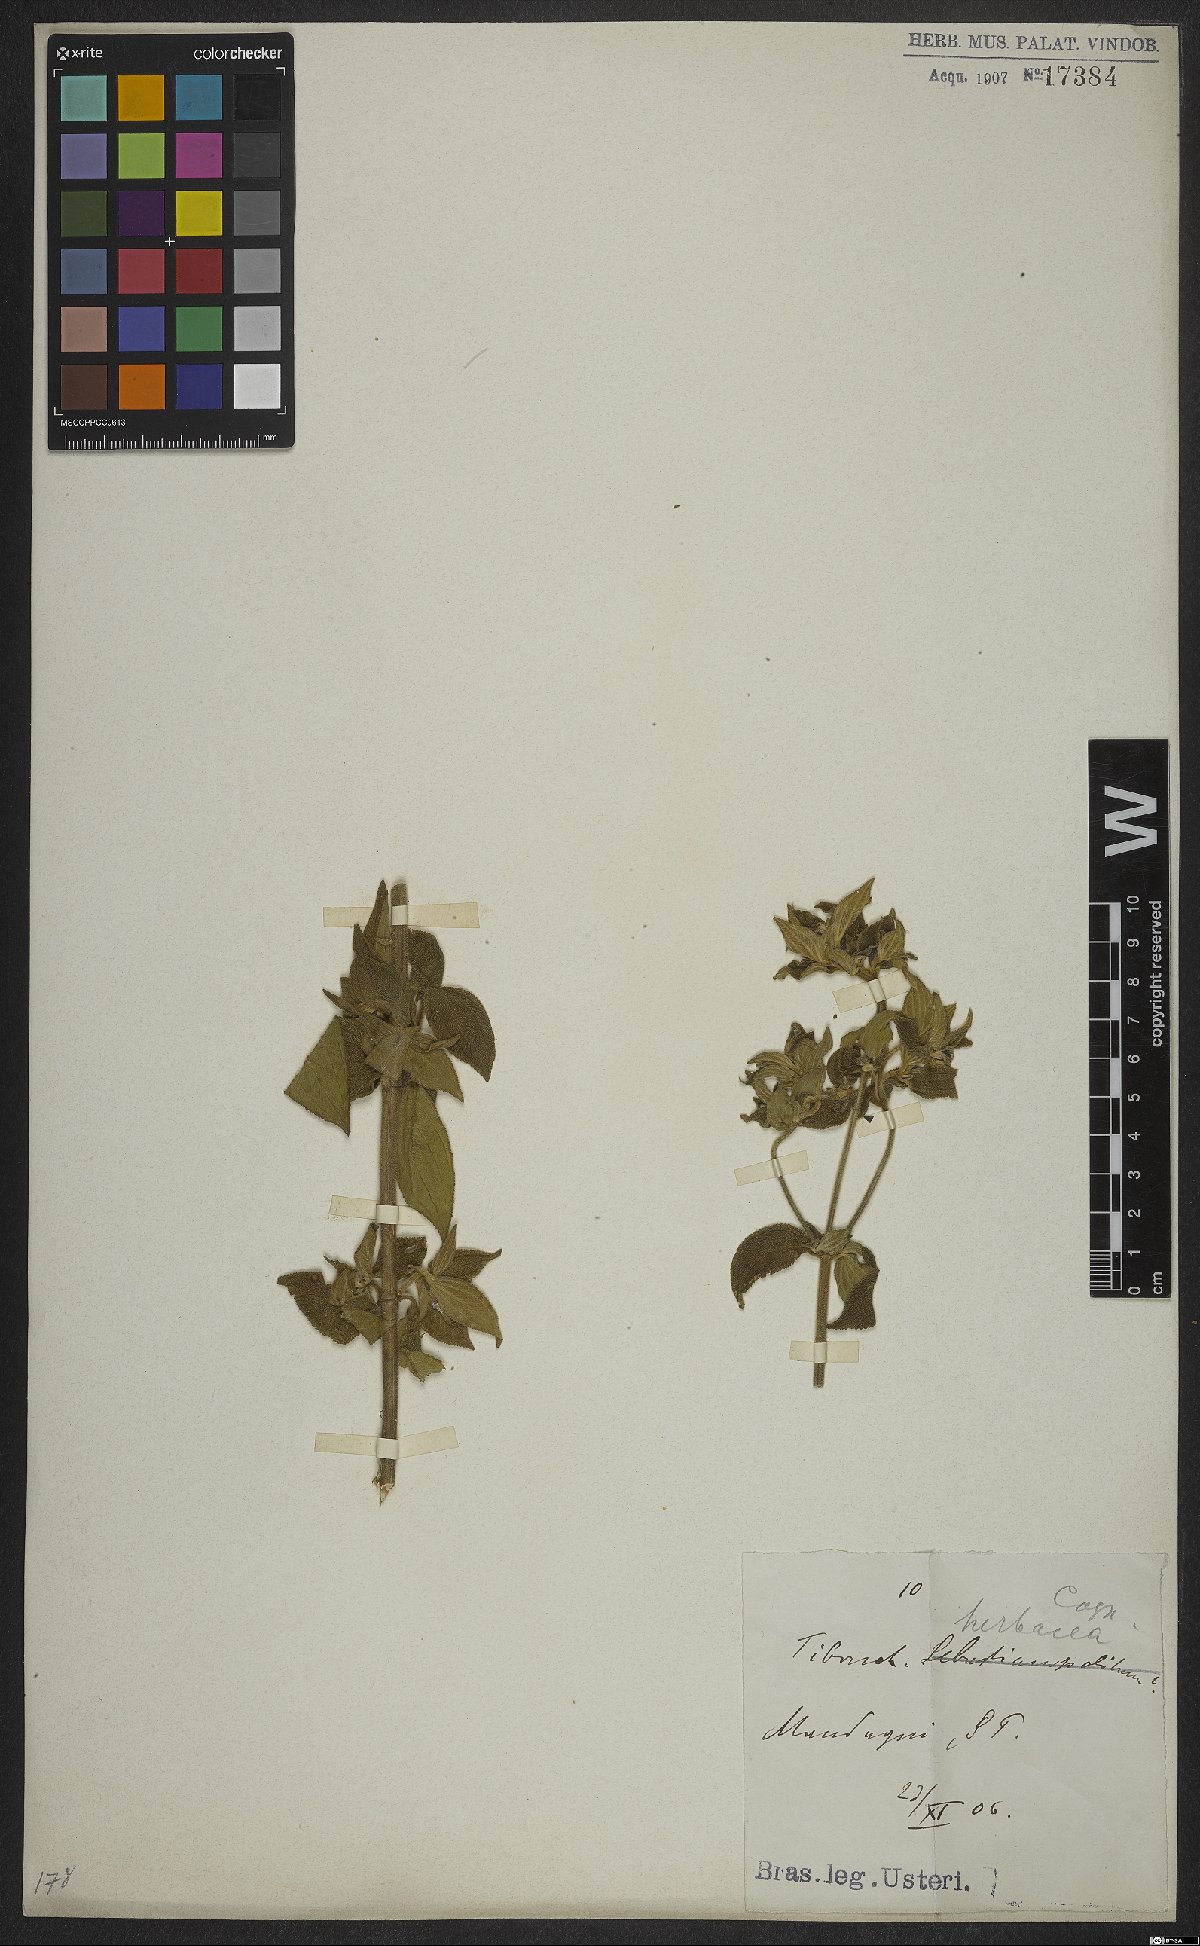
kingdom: Plantae
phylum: Tracheophyta
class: Magnoliopsida
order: Myrtales
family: Melastomataceae
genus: Chaetogastra
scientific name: Chaetogastra herbacea
